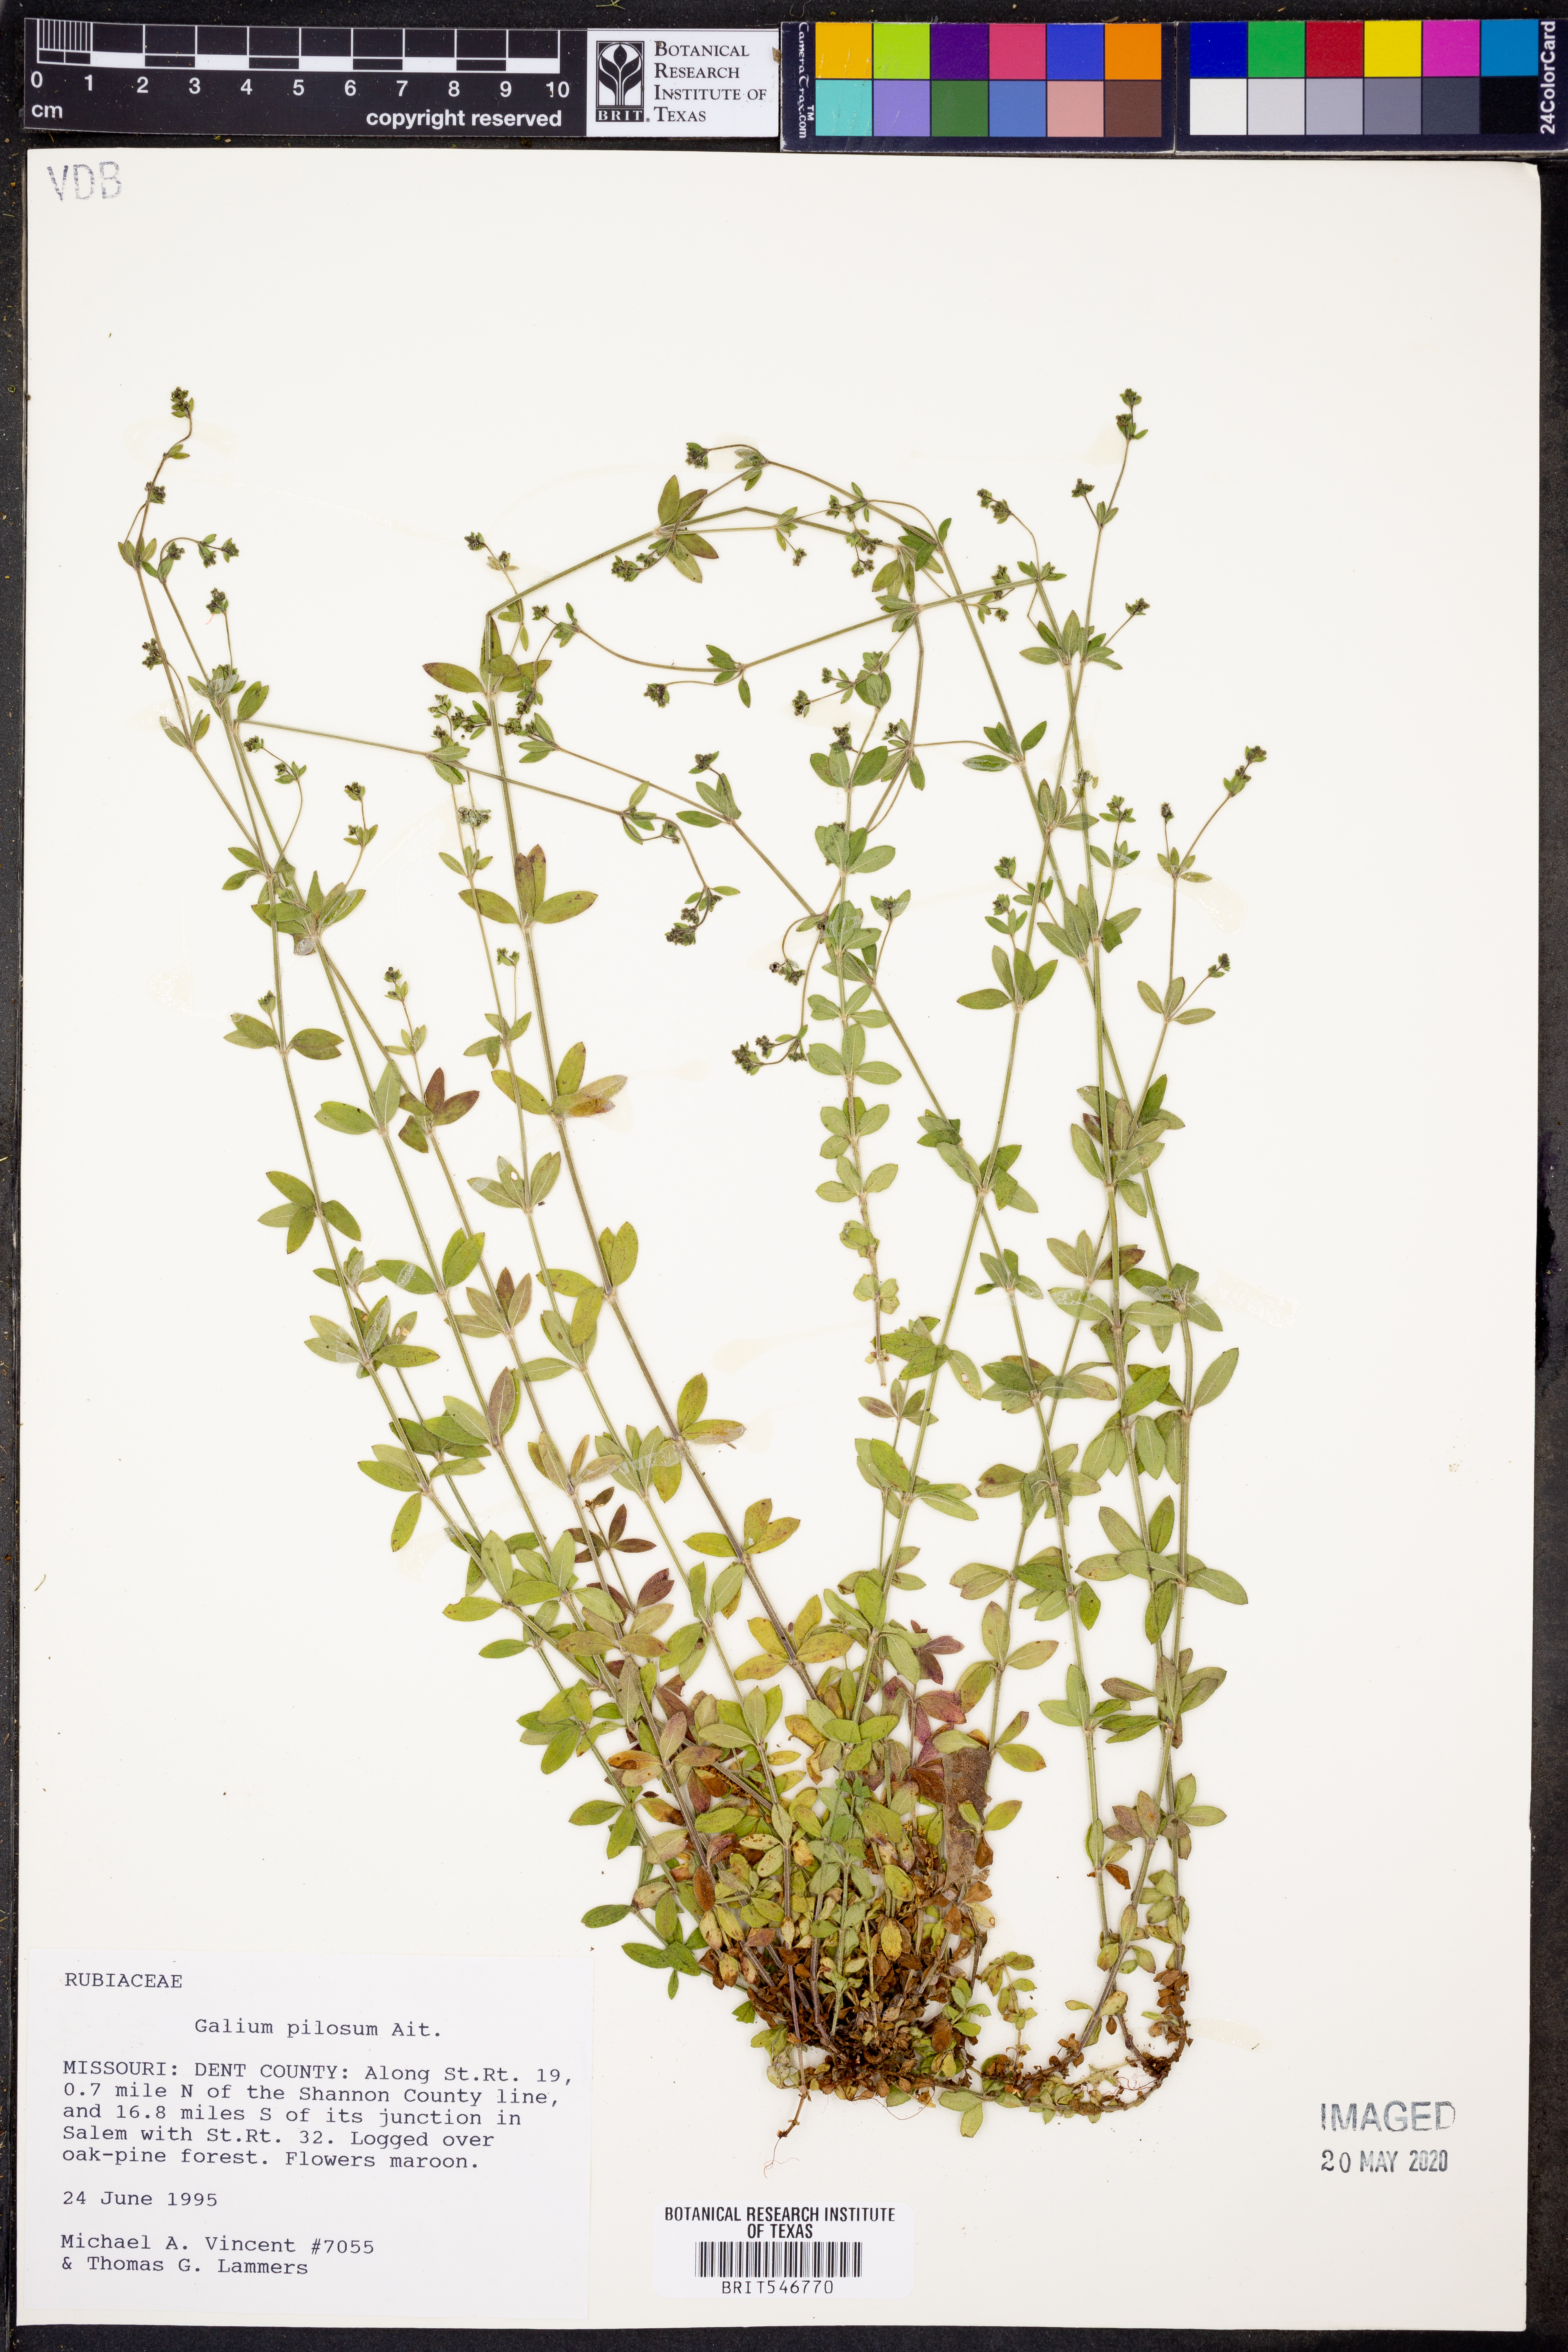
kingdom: Plantae
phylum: Tracheophyta
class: Magnoliopsida
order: Gentianales
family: Rubiaceae
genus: Galium
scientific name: Galium pilosum
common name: Hairy bedstraw
